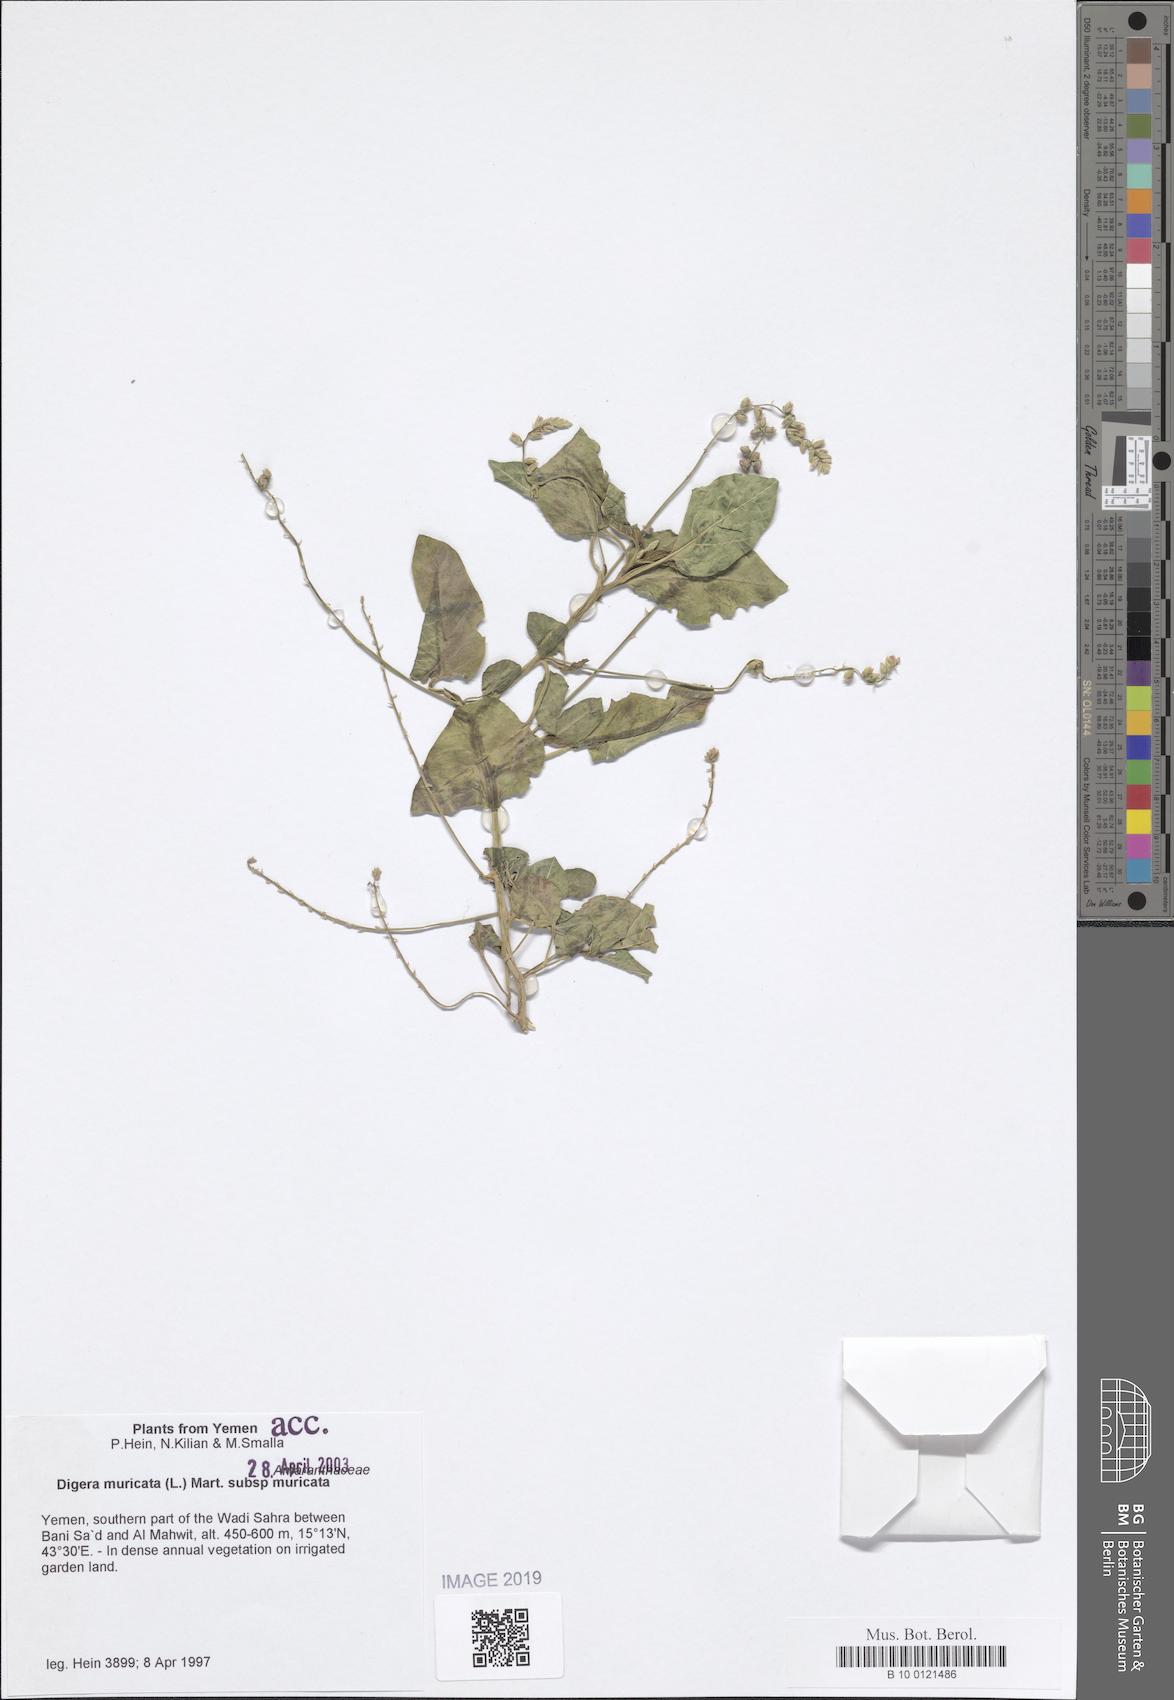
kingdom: Plantae
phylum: Tracheophyta
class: Magnoliopsida
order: Caryophyllales
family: Amaranthaceae
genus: Digera
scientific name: Digera muricata
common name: False amaranth
